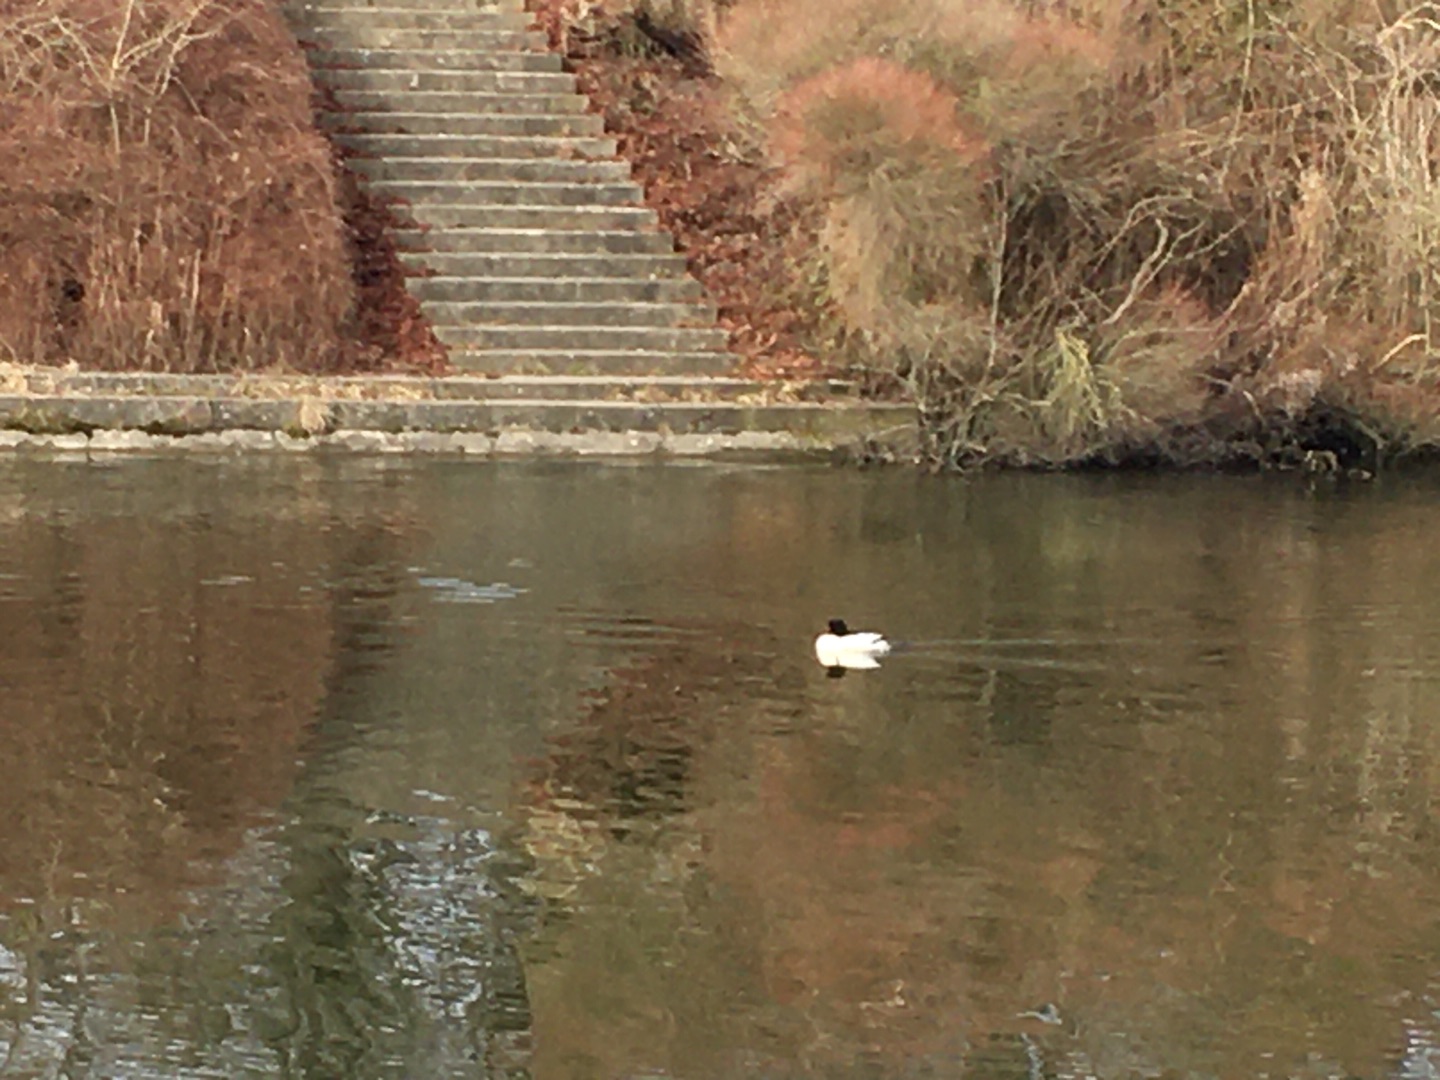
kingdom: Animalia
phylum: Chordata
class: Aves
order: Anseriformes
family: Anatidae
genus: Mergus
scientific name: Mergus merganser
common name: Stor skallesluger
